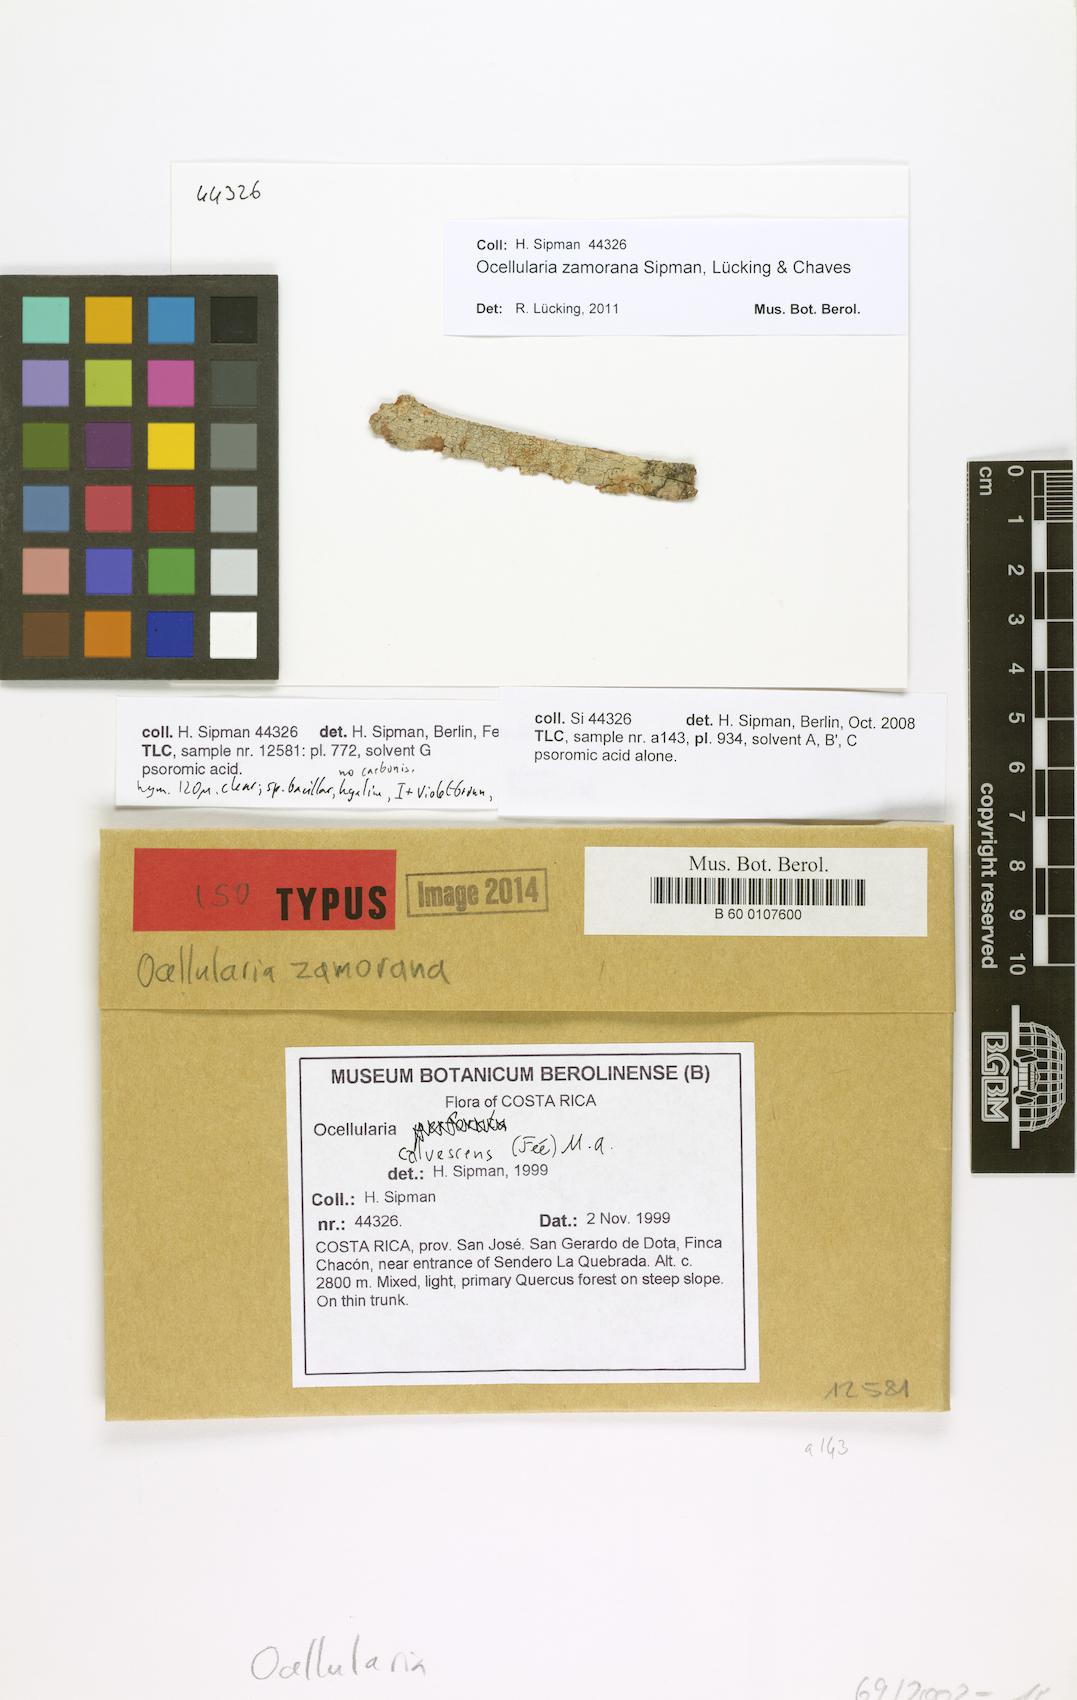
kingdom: Fungi
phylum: Ascomycota
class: Lecanoromycetes
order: Ostropales
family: Graphidaceae
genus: Ocellularia
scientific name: Ocellularia zamorana
